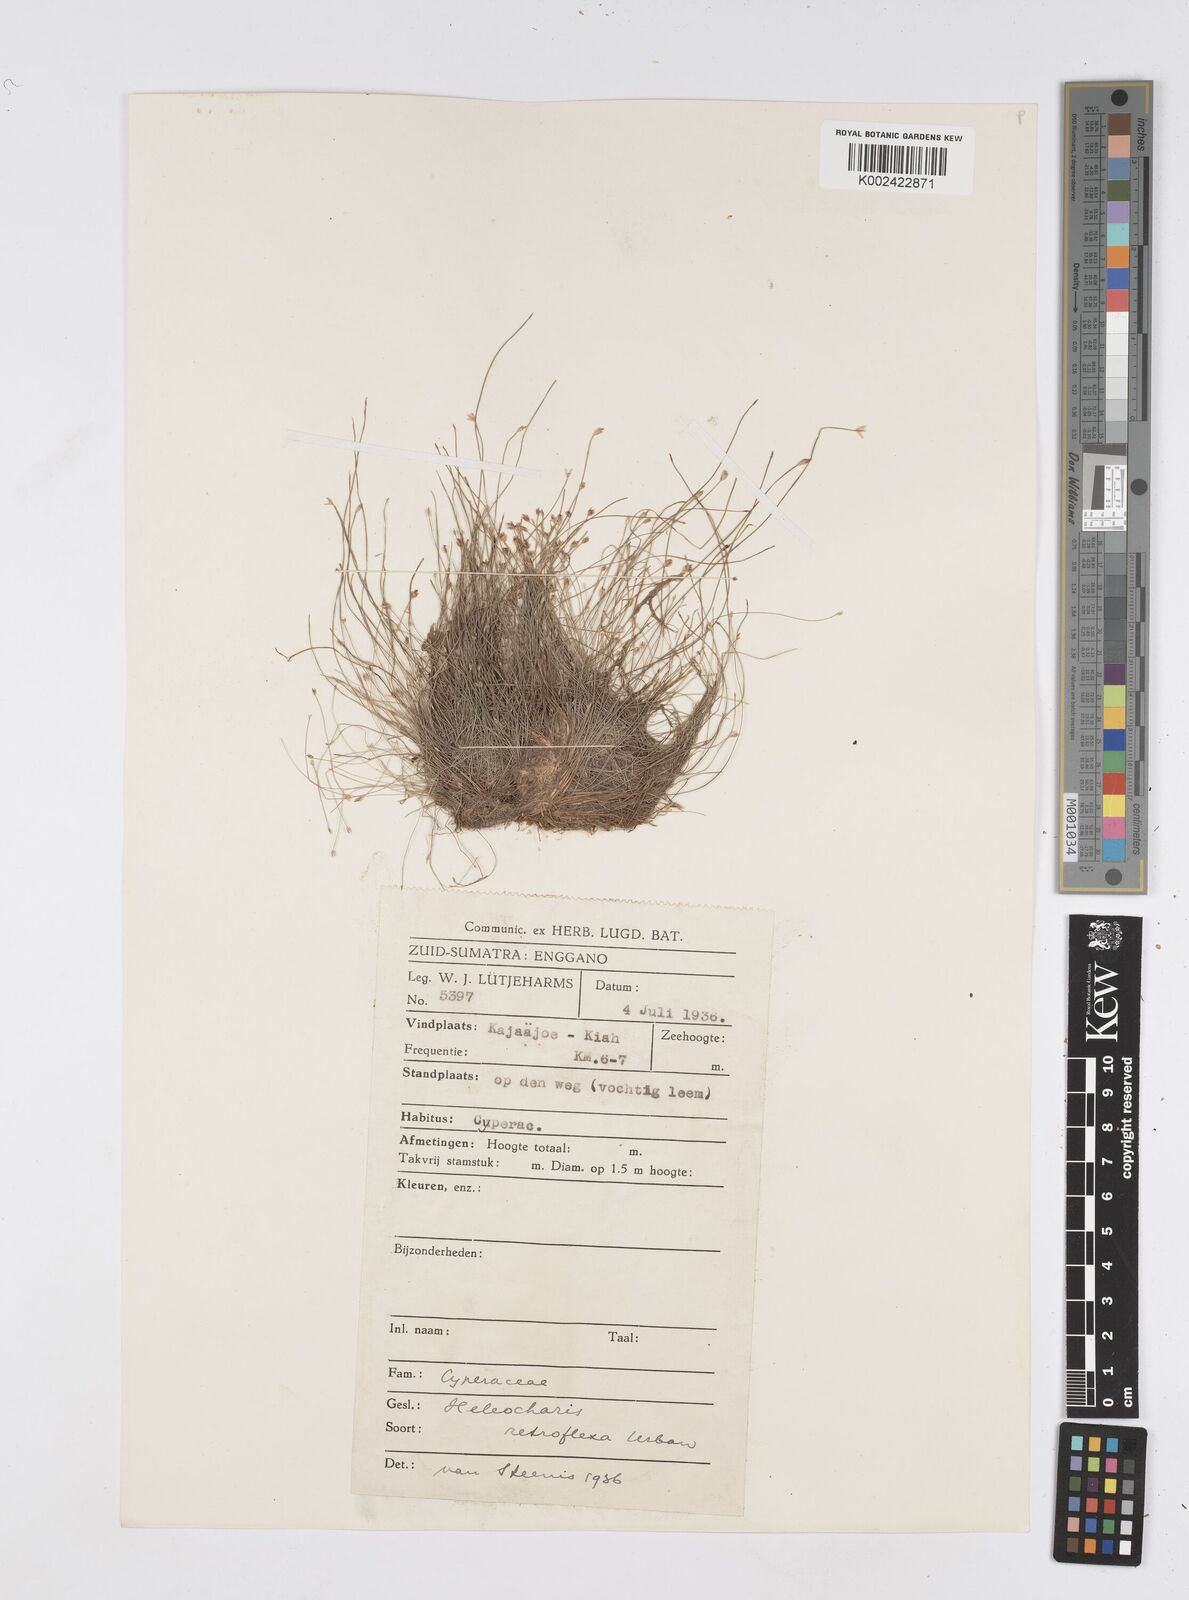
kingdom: Plantae
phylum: Tracheophyta
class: Liliopsida
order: Poales
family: Cyperaceae
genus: Eleocharis
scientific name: Eleocharis retroflexa
